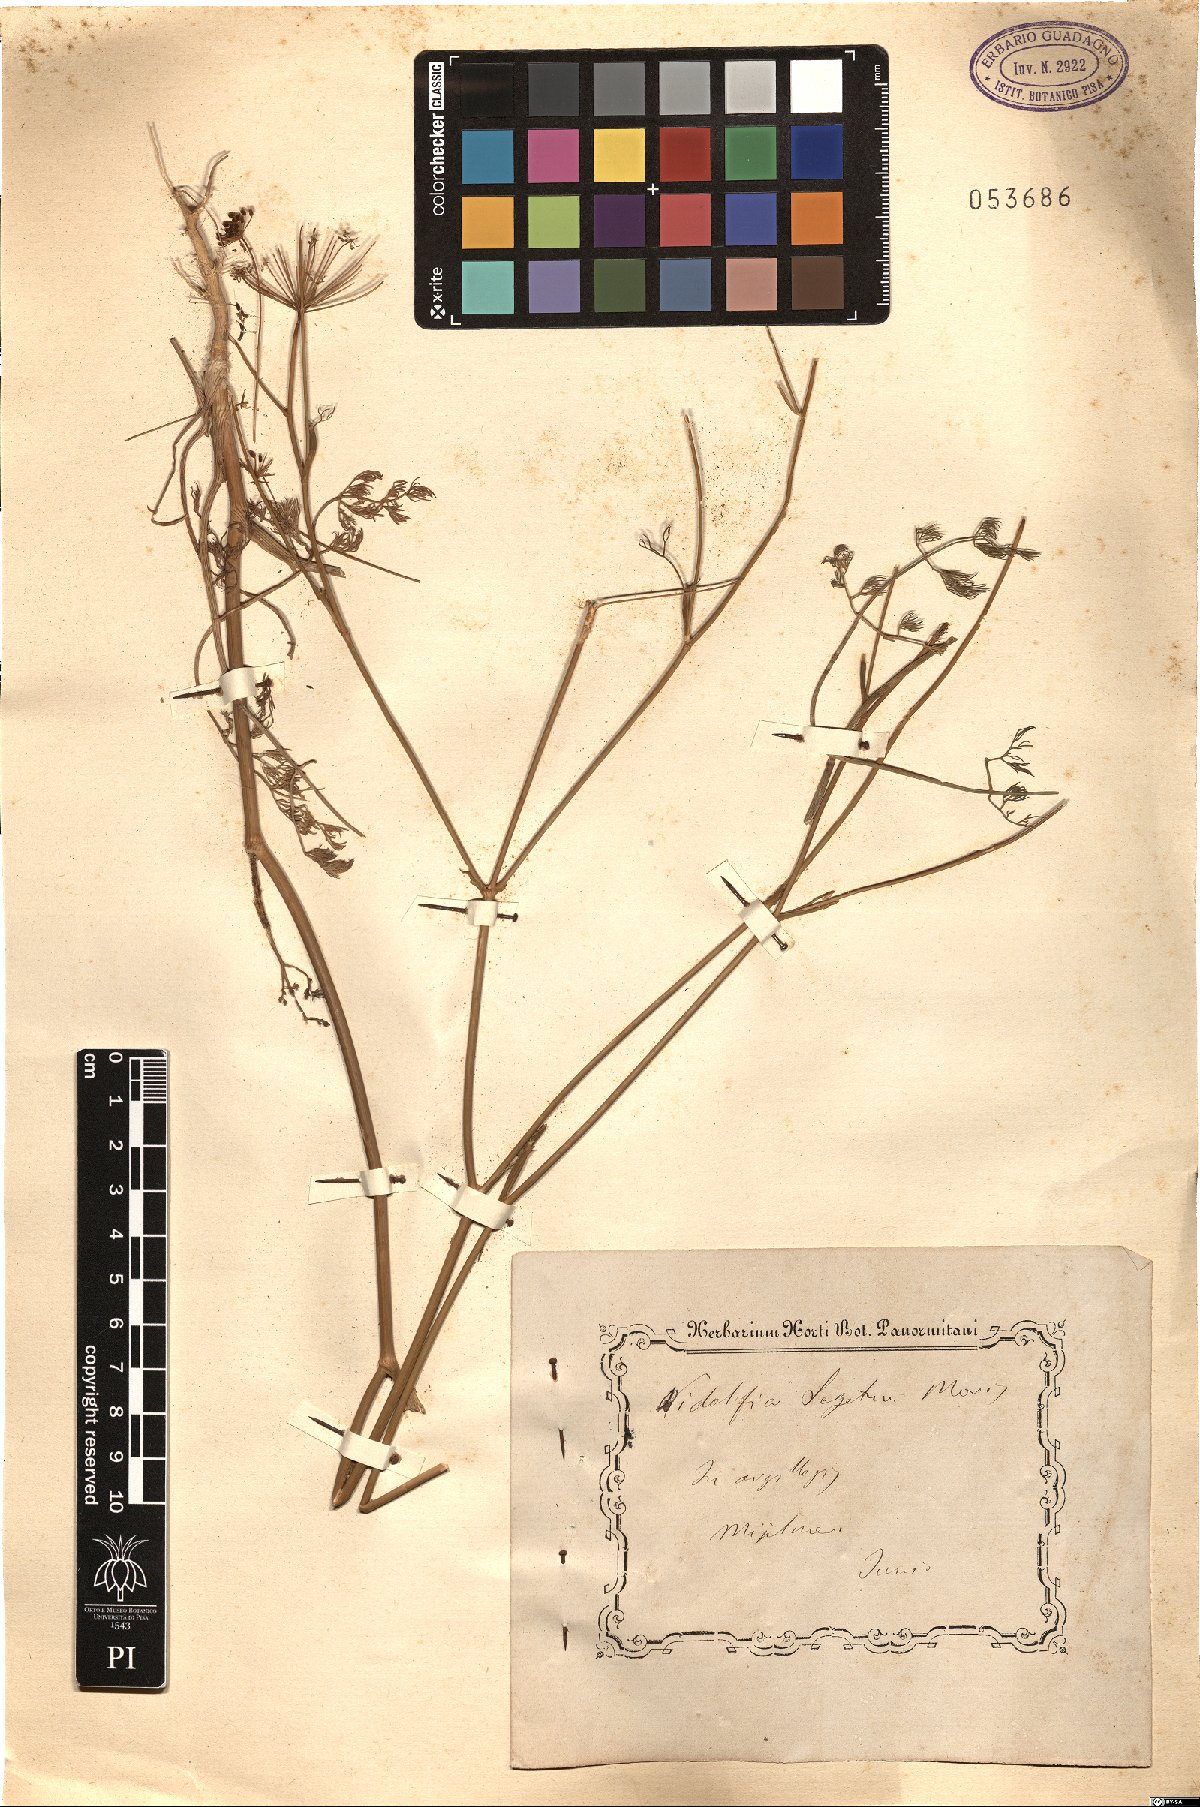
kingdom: Plantae
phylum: Tracheophyta
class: Magnoliopsida
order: Apiales
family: Apiaceae
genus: Anethum
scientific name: Anethum ridolfia
